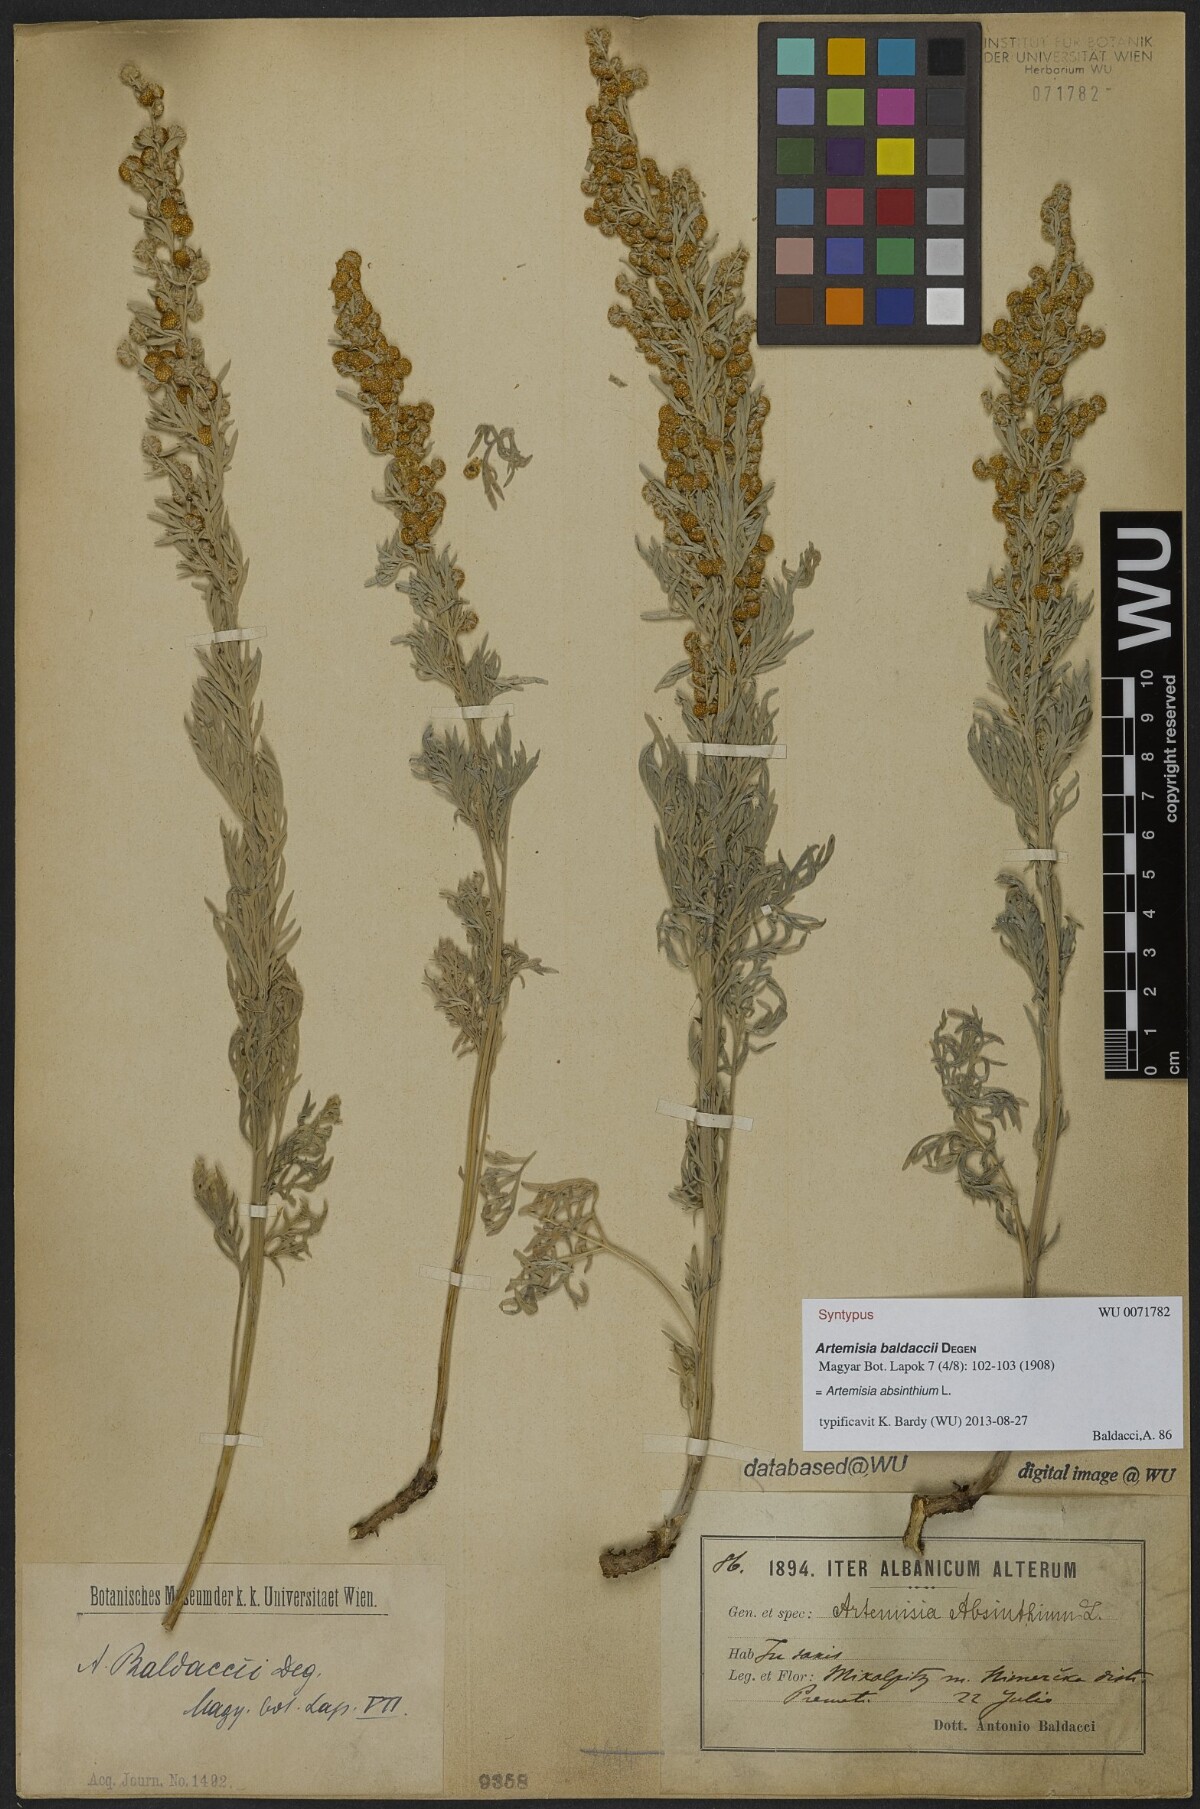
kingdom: Plantae
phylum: Tracheophyta
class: Magnoliopsida
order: Asterales
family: Asteraceae
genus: Artemisia
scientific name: Artemisia absinthium
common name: Wormwood
